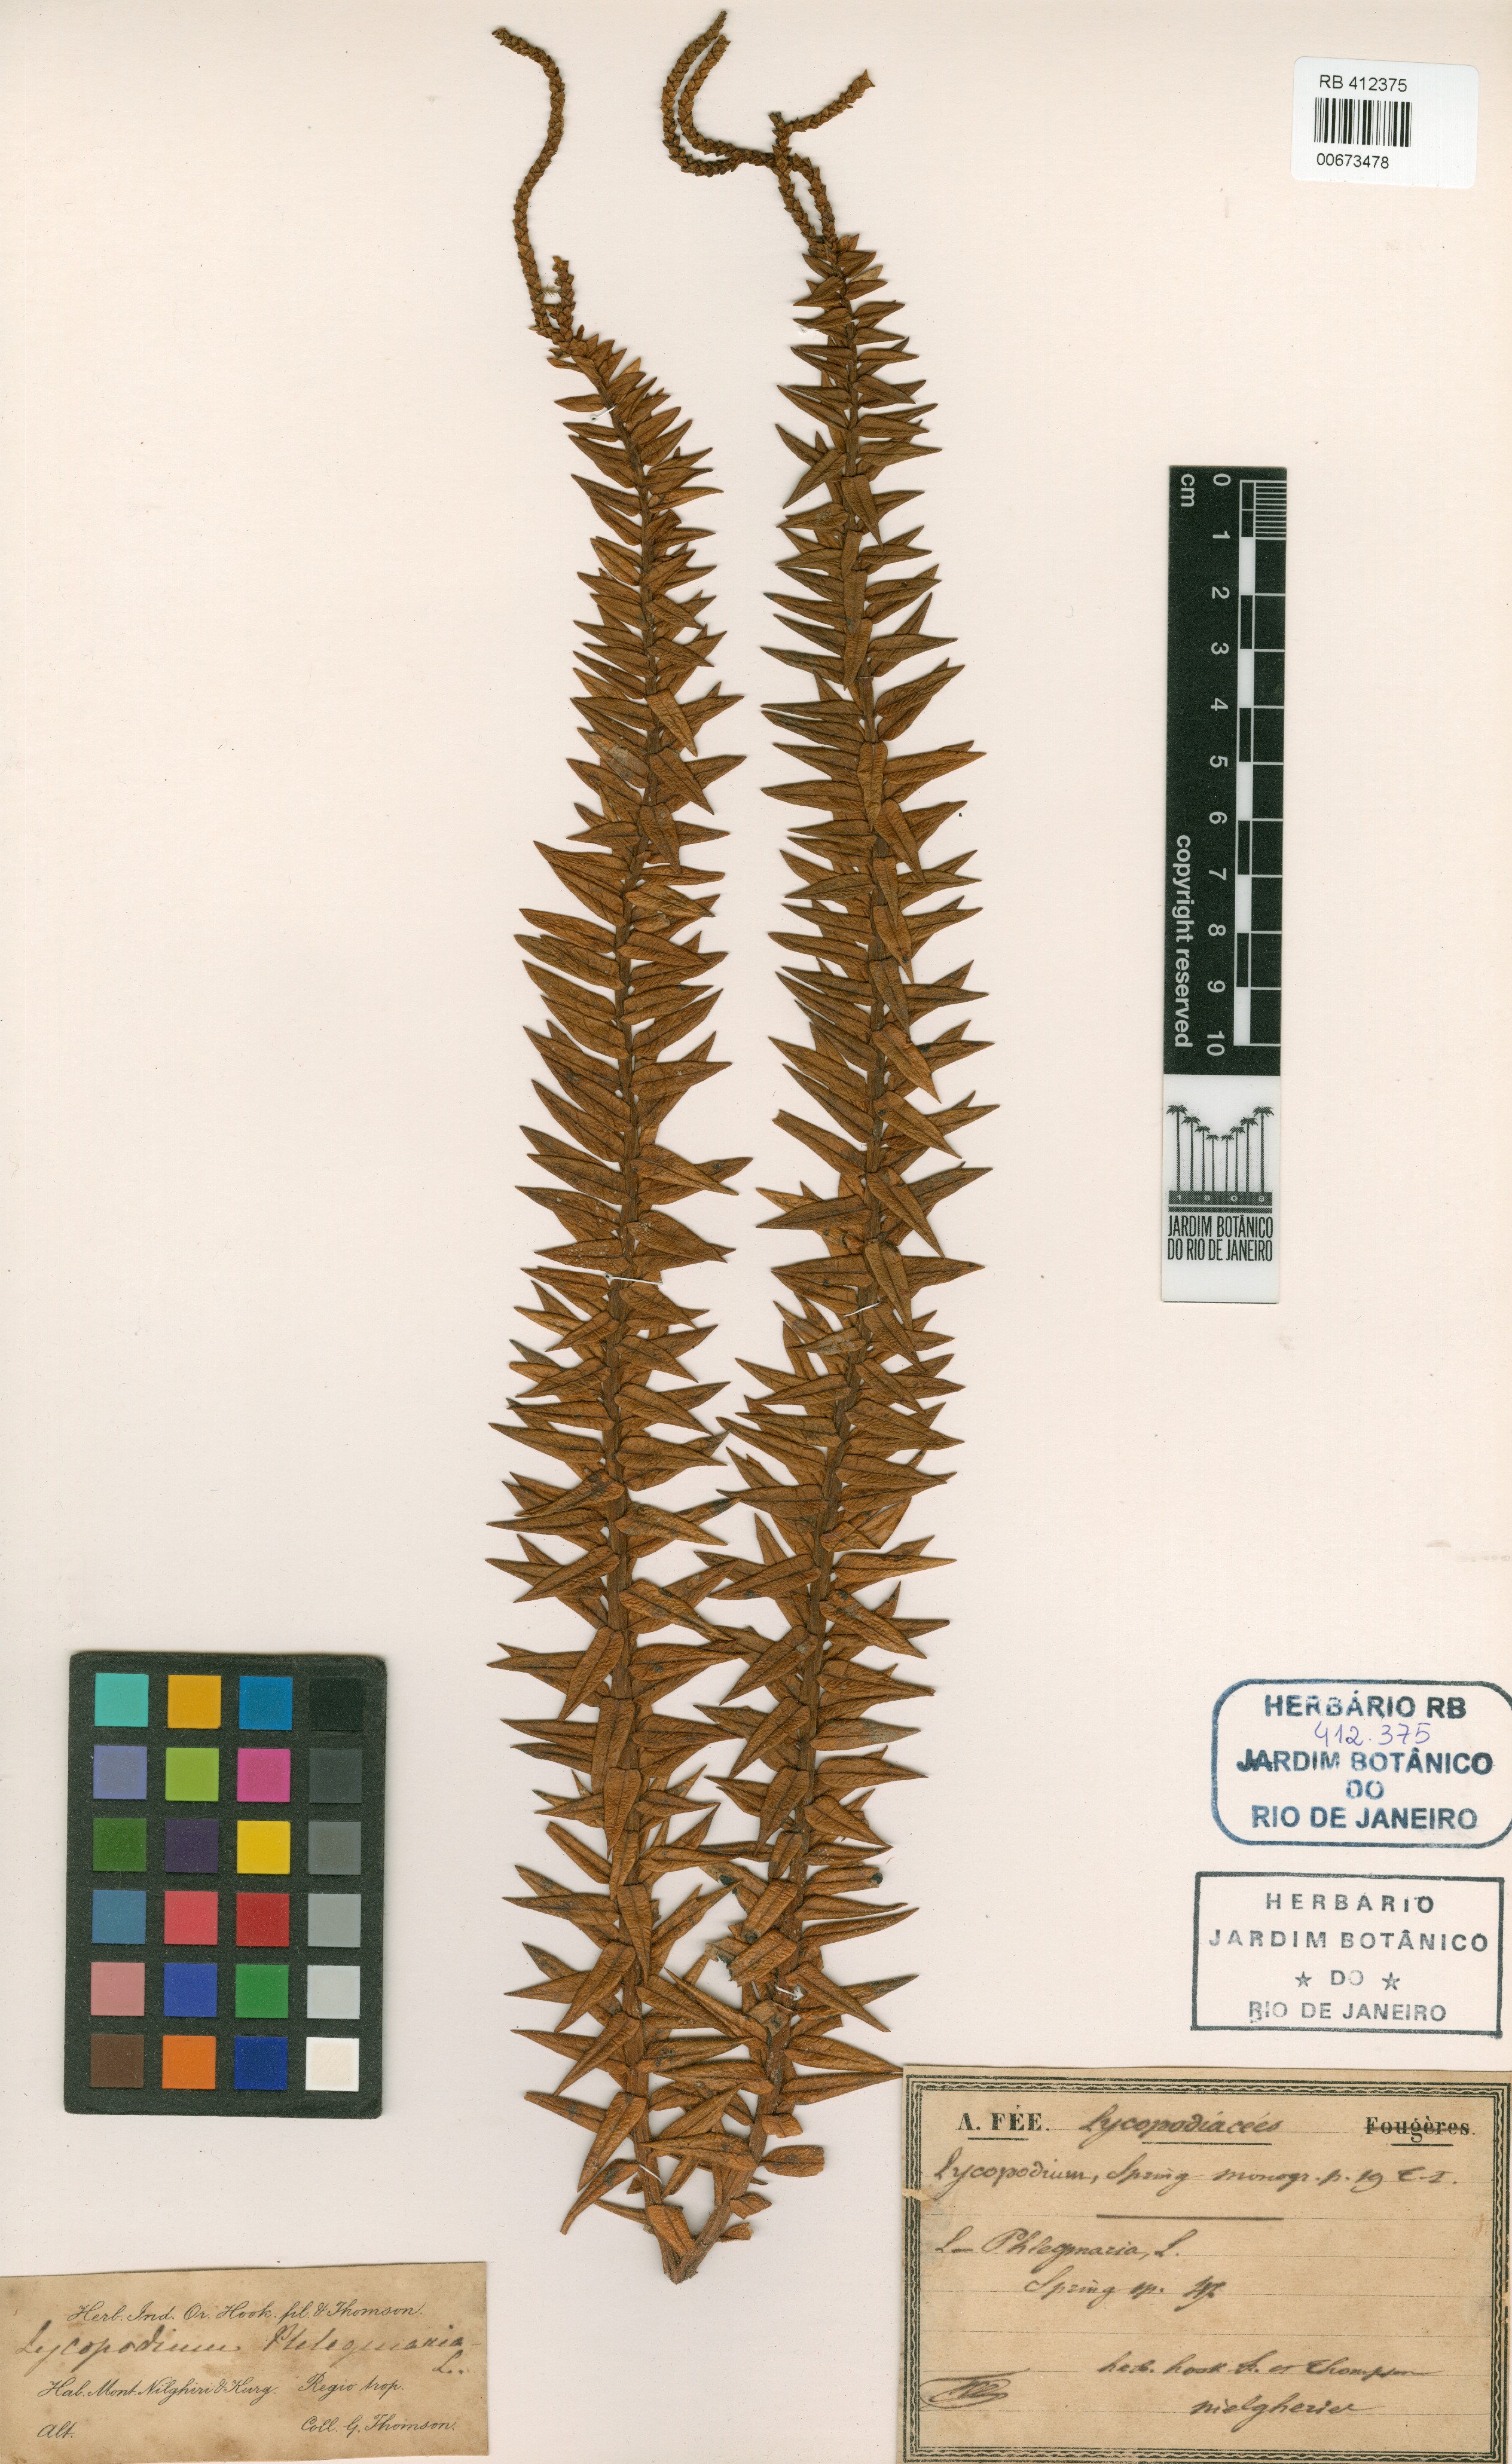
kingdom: Plantae
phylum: Tracheophyta
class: Lycopodiopsida
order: Lycopodiales
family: Lycopodiaceae
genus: Phlegmariurus
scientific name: Phlegmariurus phlegmaria
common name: Coarse tassel-fern
